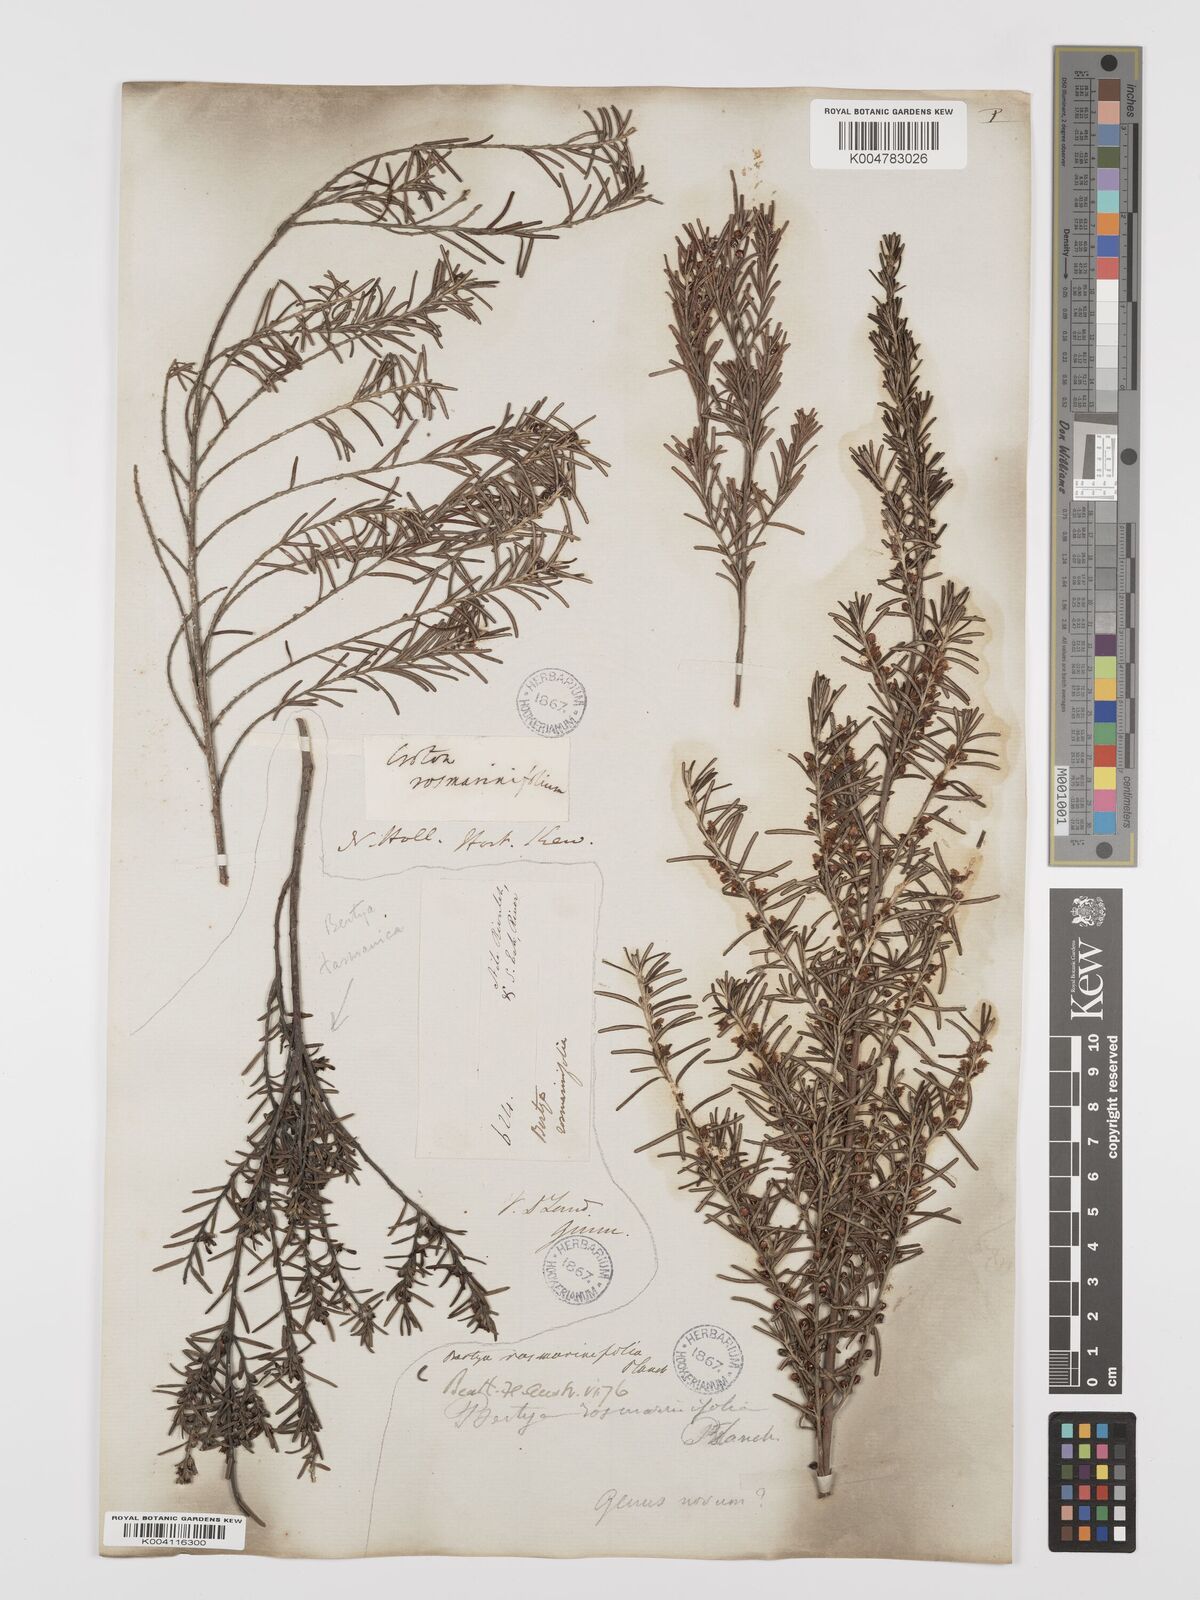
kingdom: Plantae
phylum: Tracheophyta
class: Magnoliopsida
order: Malpighiales
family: Euphorbiaceae
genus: Bertya
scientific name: Bertya rosmarinifolia
